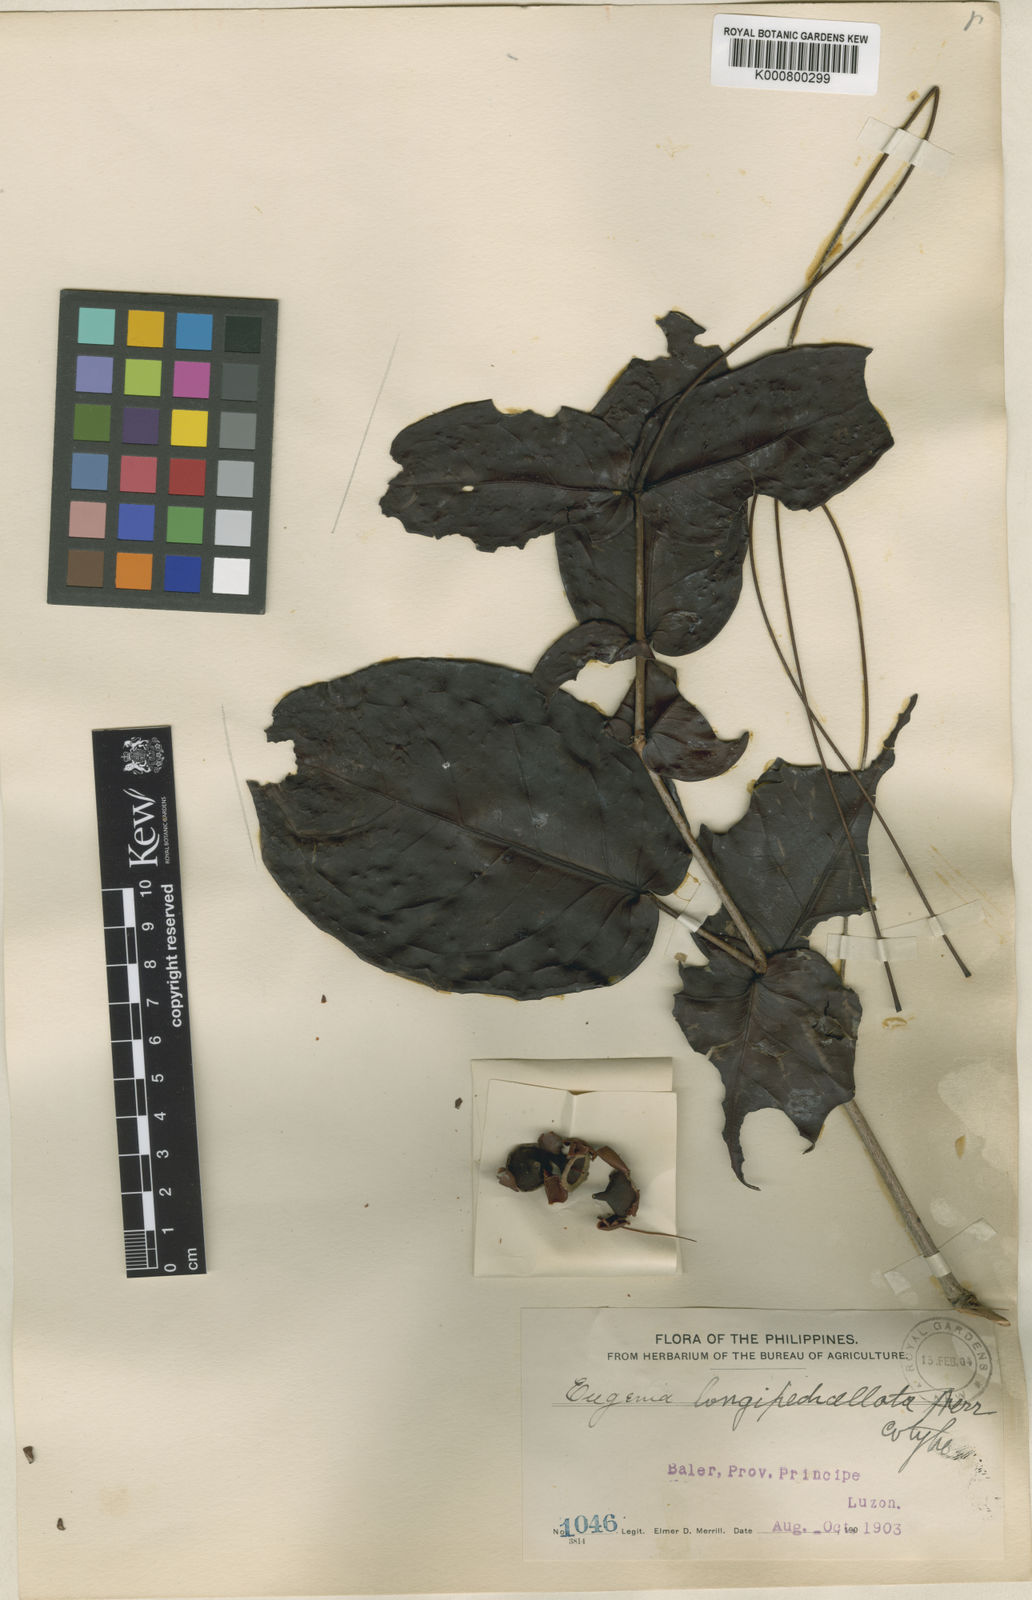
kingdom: Plantae
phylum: Tracheophyta
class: Magnoliopsida
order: Myrtales
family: Myrtaceae
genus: Syzygium
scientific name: Syzygium longipedicellatum
